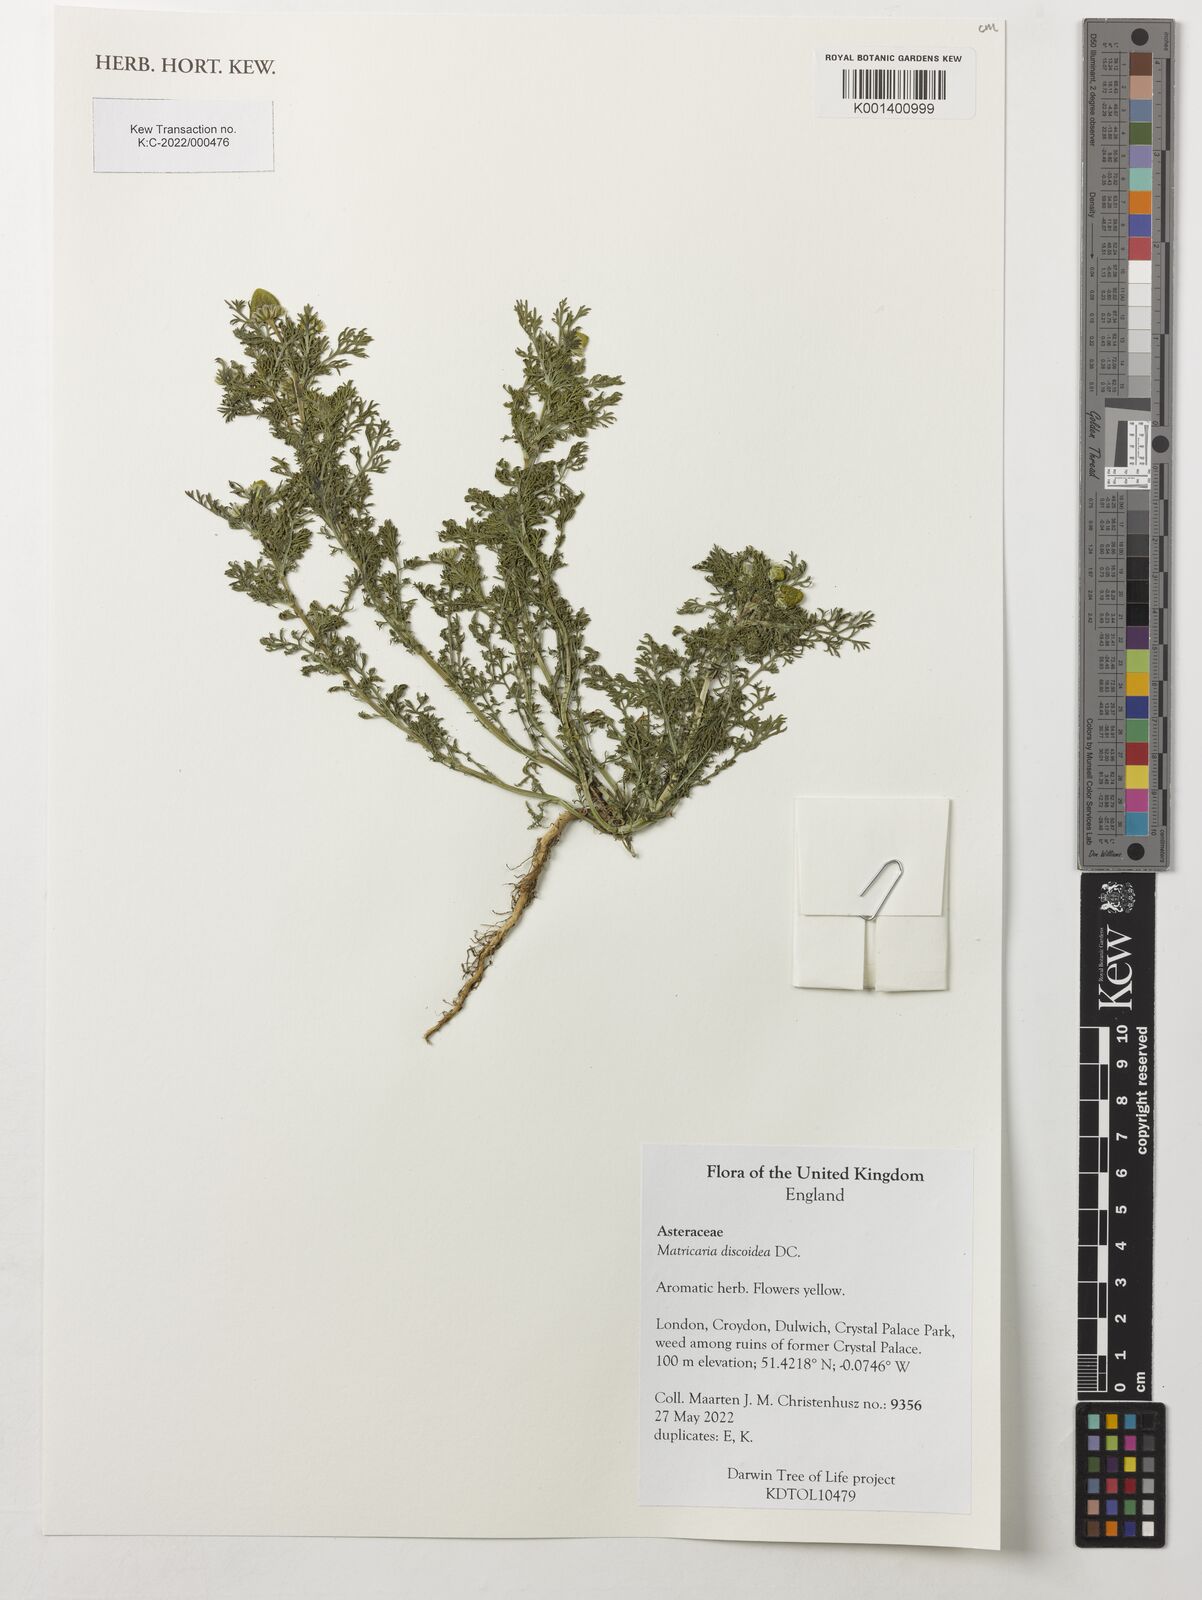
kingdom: Plantae
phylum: Tracheophyta
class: Magnoliopsida
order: Asterales
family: Asteraceae
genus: Matricaria
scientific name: Matricaria discoidea
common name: Disc mayweed
